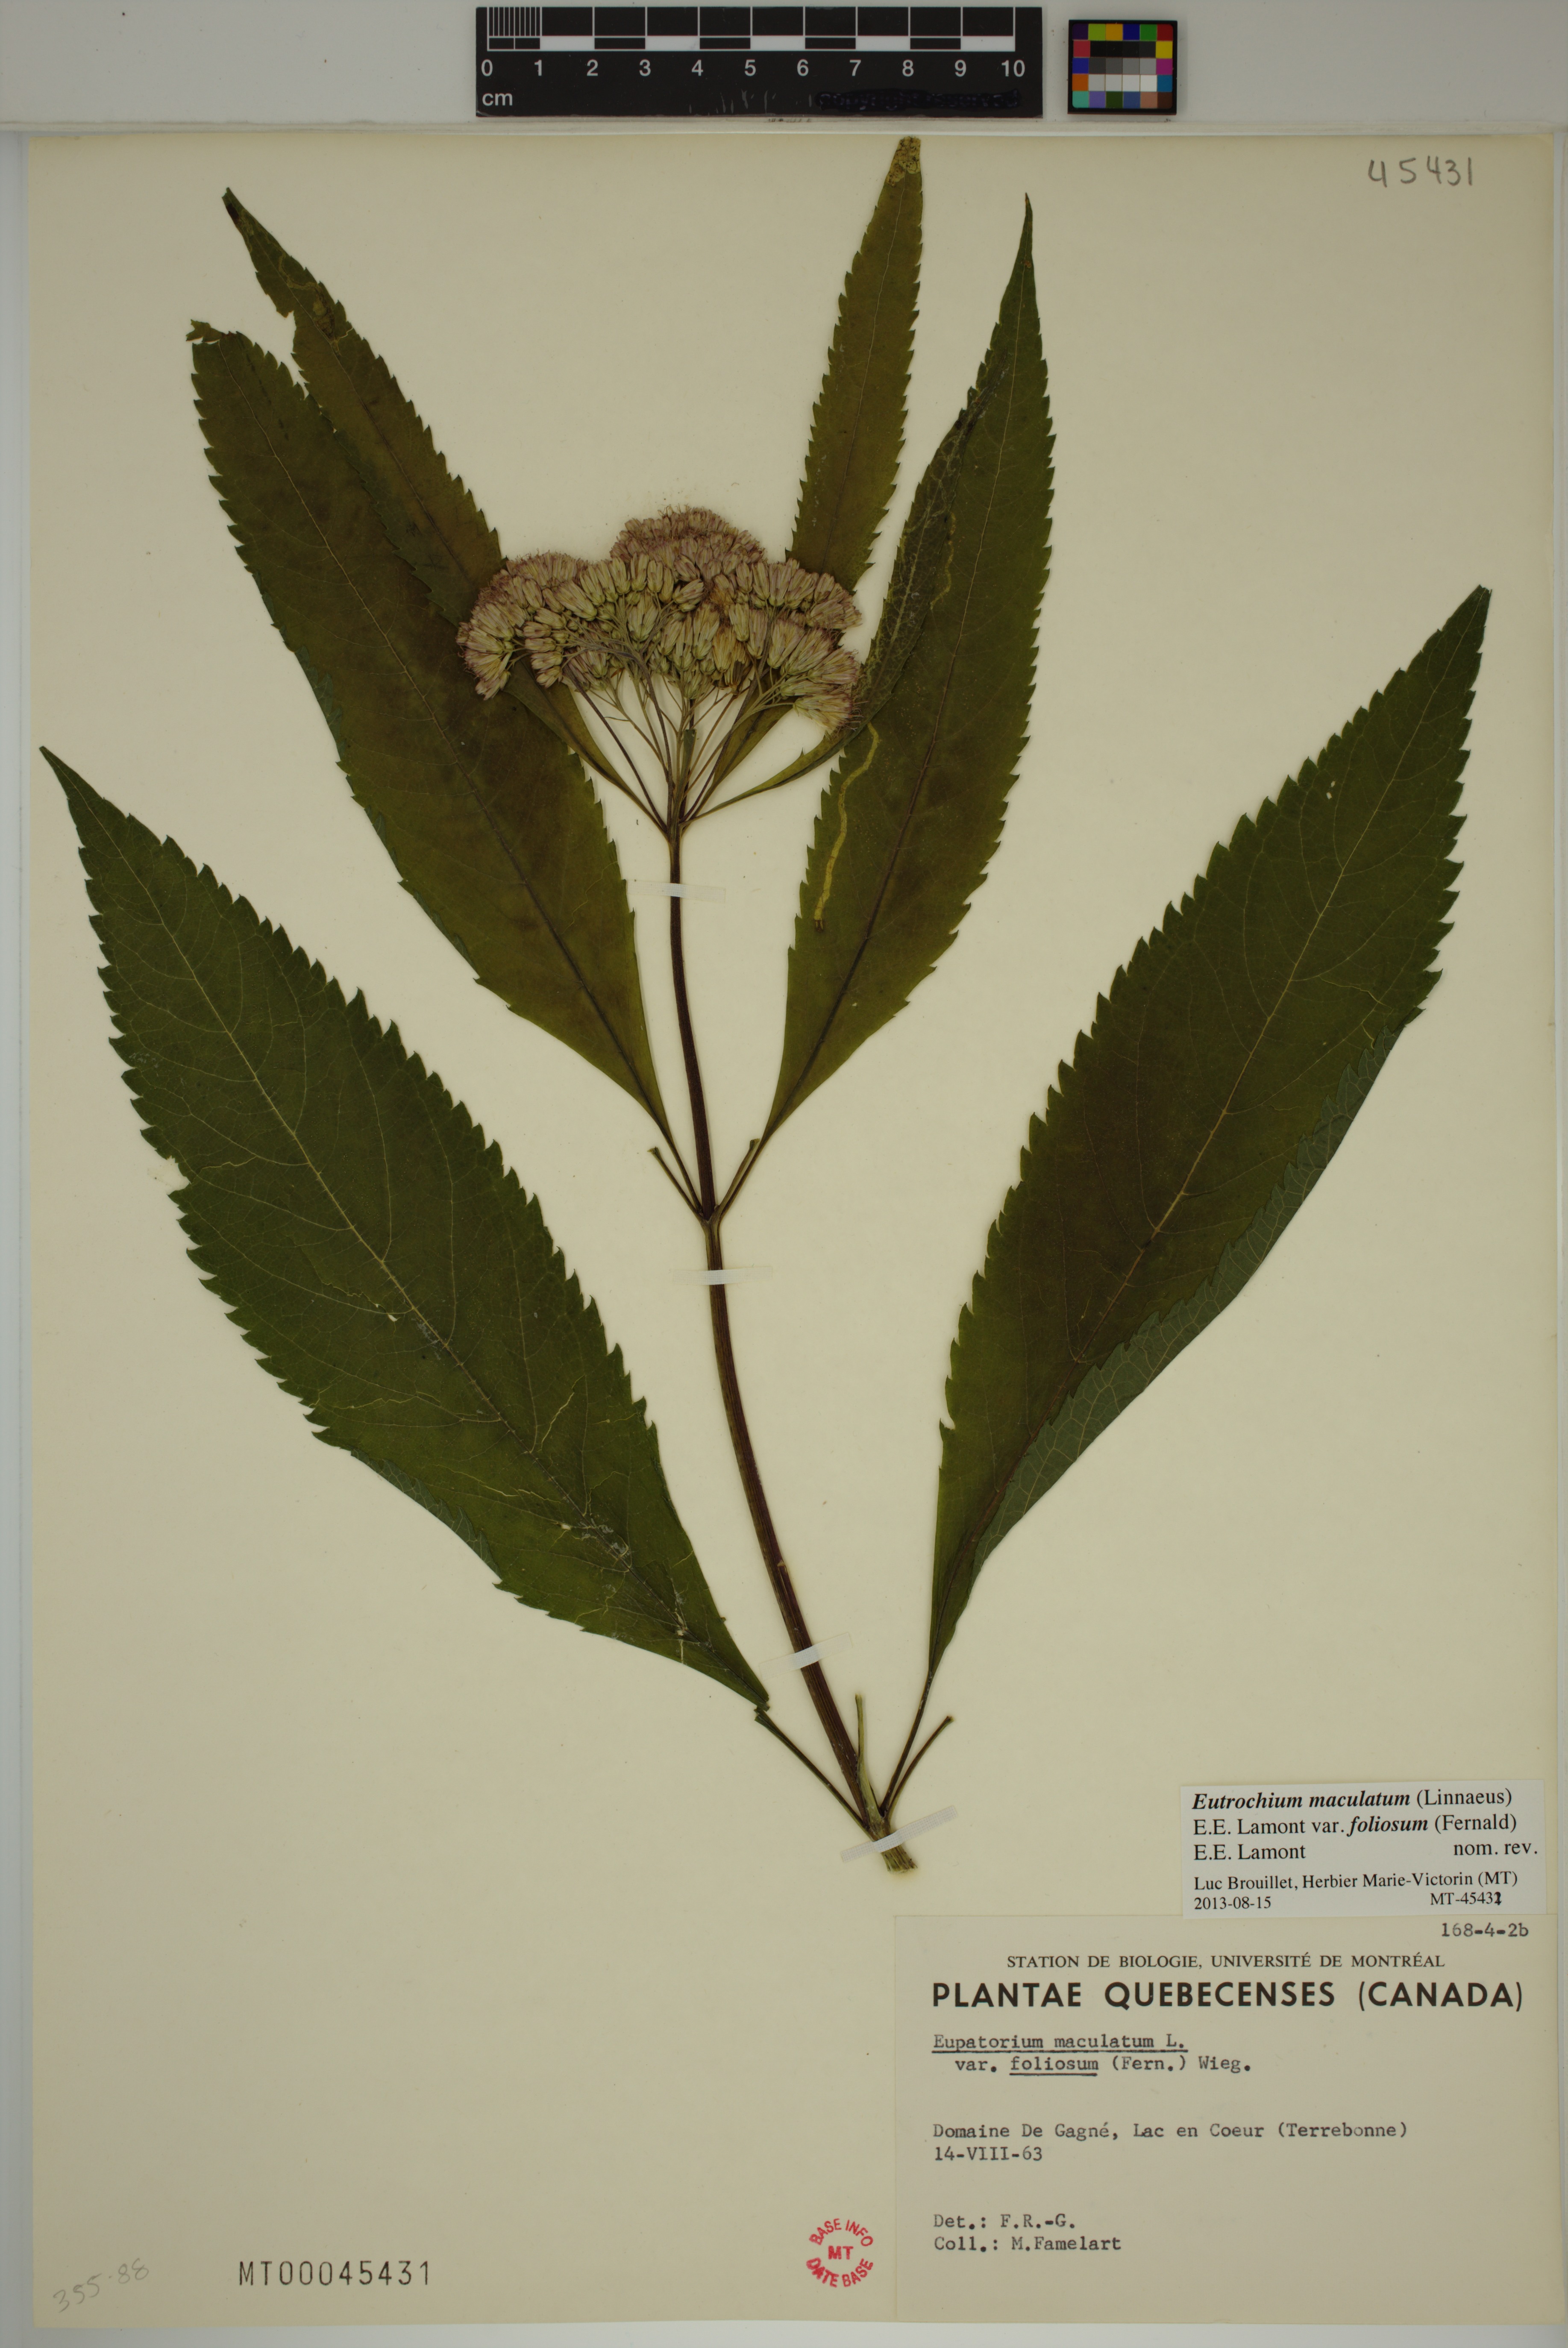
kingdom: Plantae
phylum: Tracheophyta
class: Magnoliopsida
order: Asterales
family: Asteraceae
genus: Eutrochium
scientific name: Eutrochium maculatum
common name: Spotted joe pye weed
